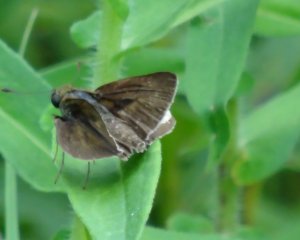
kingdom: Animalia
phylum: Arthropoda
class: Insecta
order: Lepidoptera
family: Hesperiidae
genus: Euphyes
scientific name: Euphyes vestris
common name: Dun Skipper
